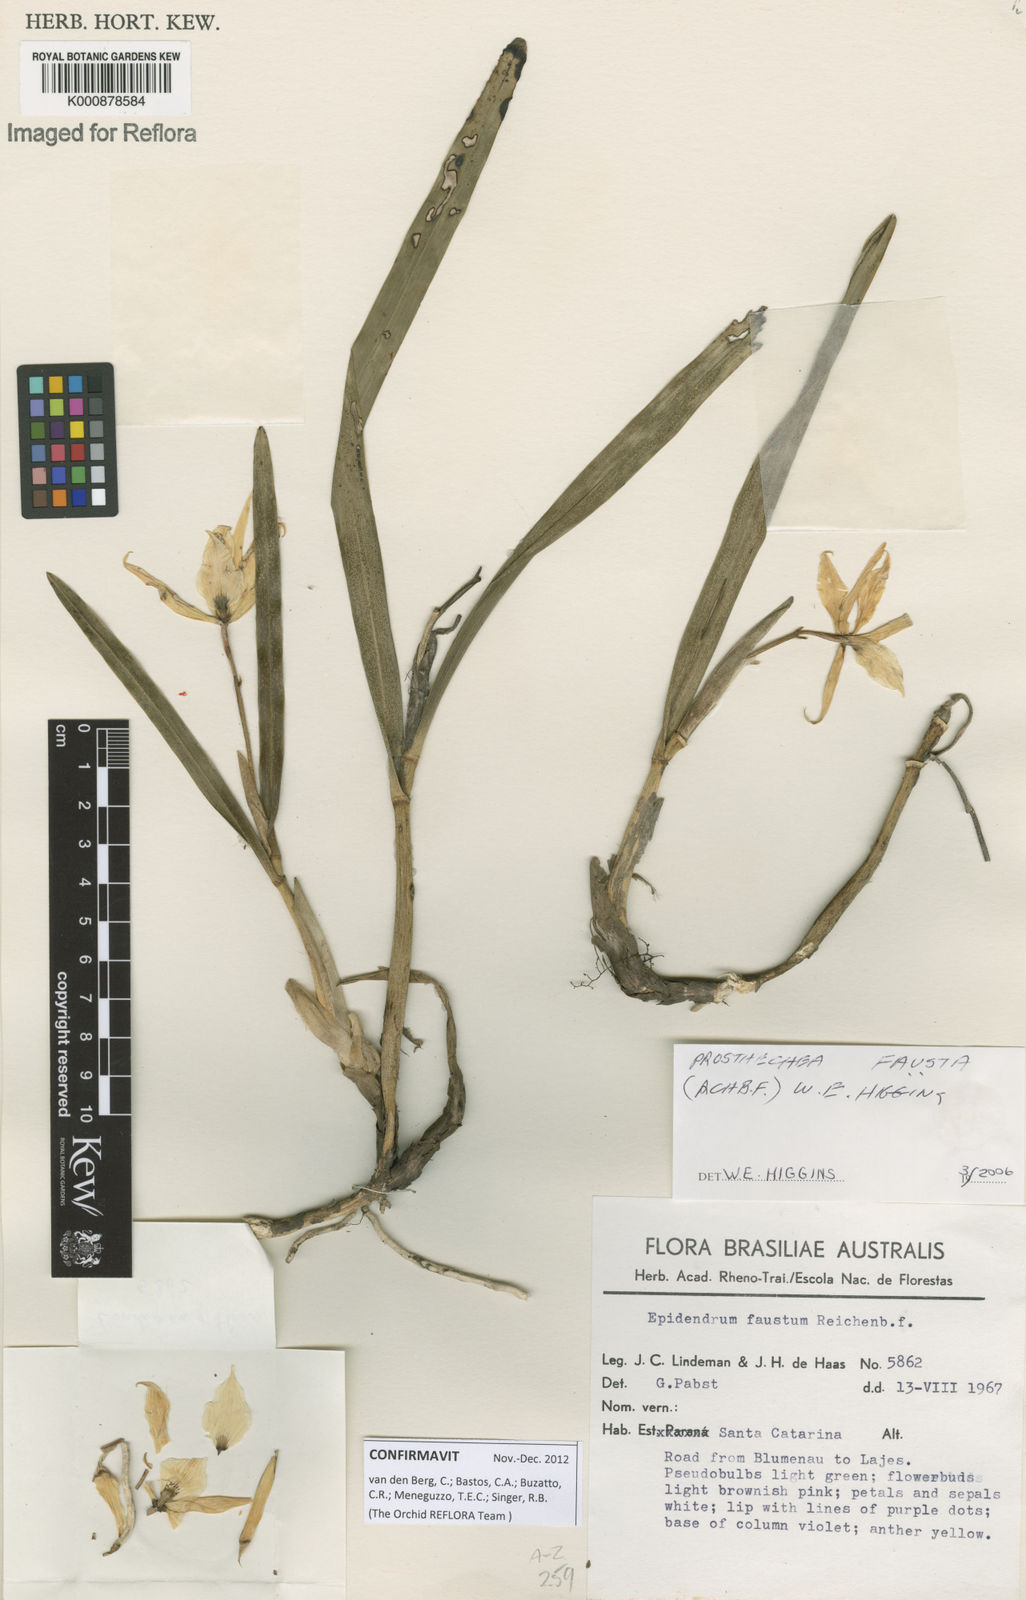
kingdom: Plantae
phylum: Tracheophyta
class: Liliopsida
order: Asparagales
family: Orchidaceae
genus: Prosthechea
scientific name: Prosthechea fausta
